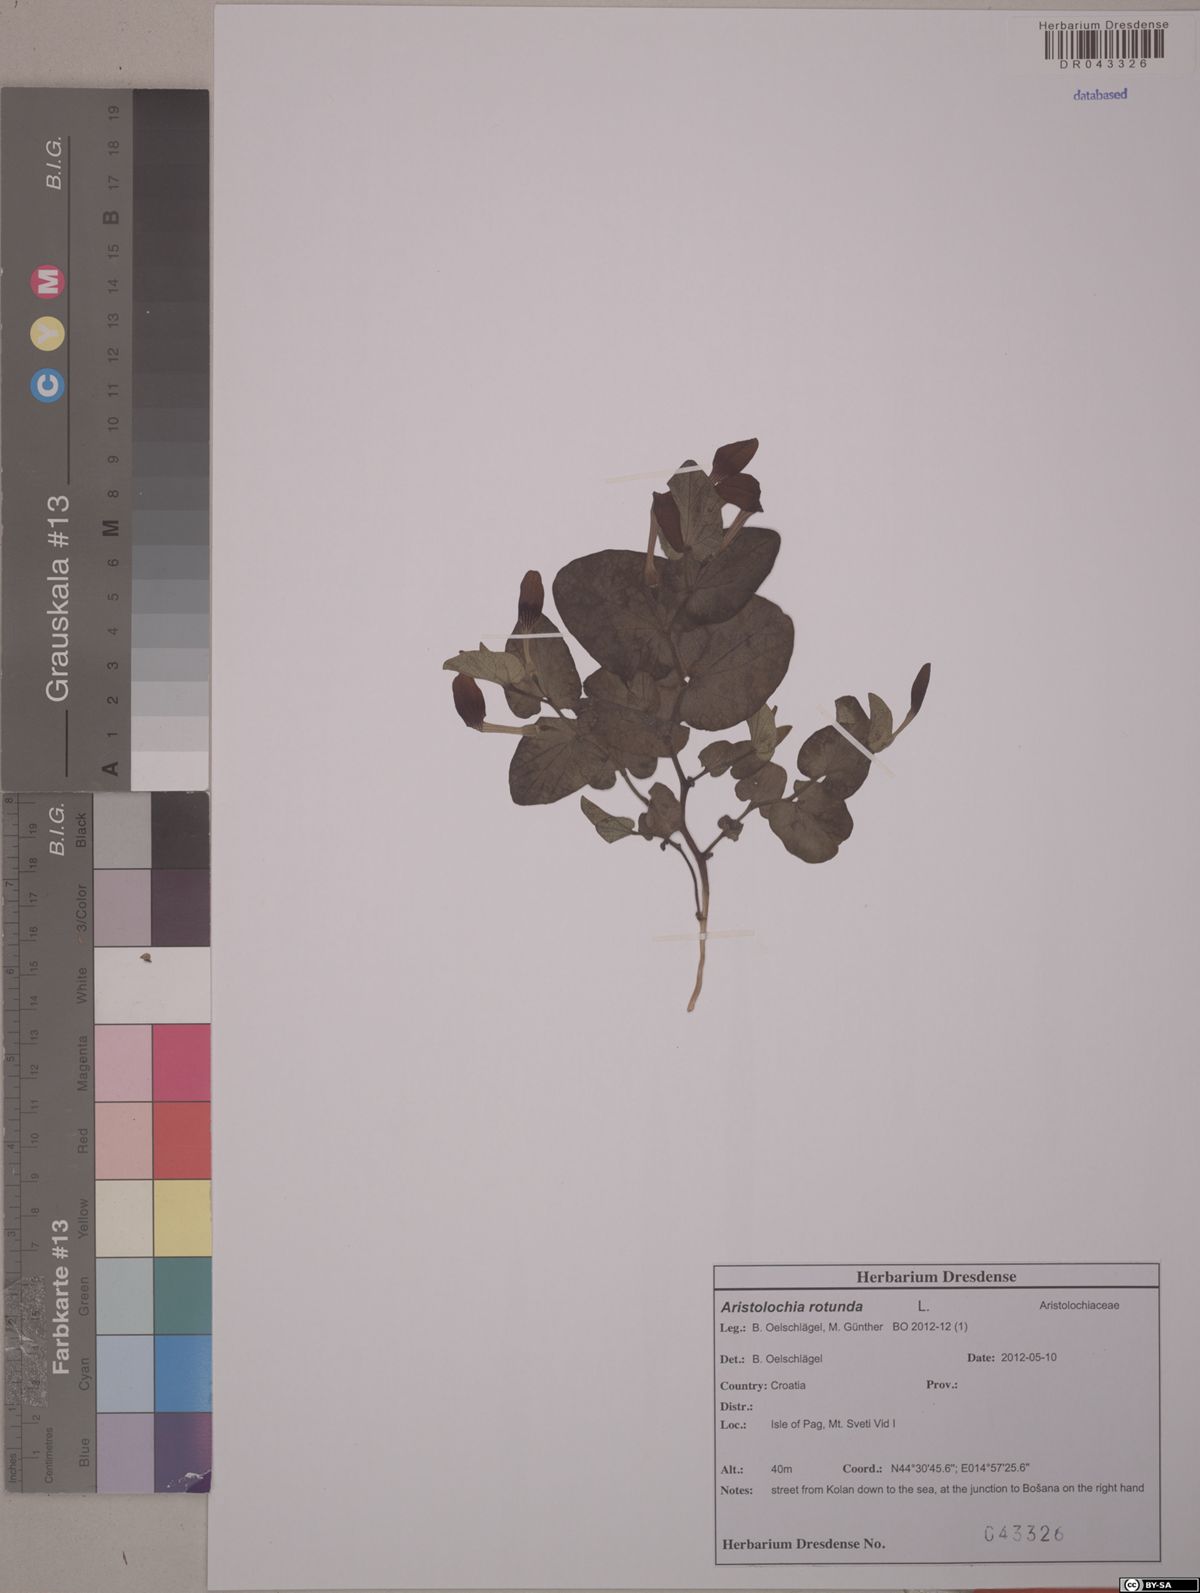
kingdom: Plantae
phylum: Tracheophyta
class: Magnoliopsida
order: Piperales
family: Aristolochiaceae
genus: Aristolochia
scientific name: Aristolochia rotunda
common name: Smearwort
